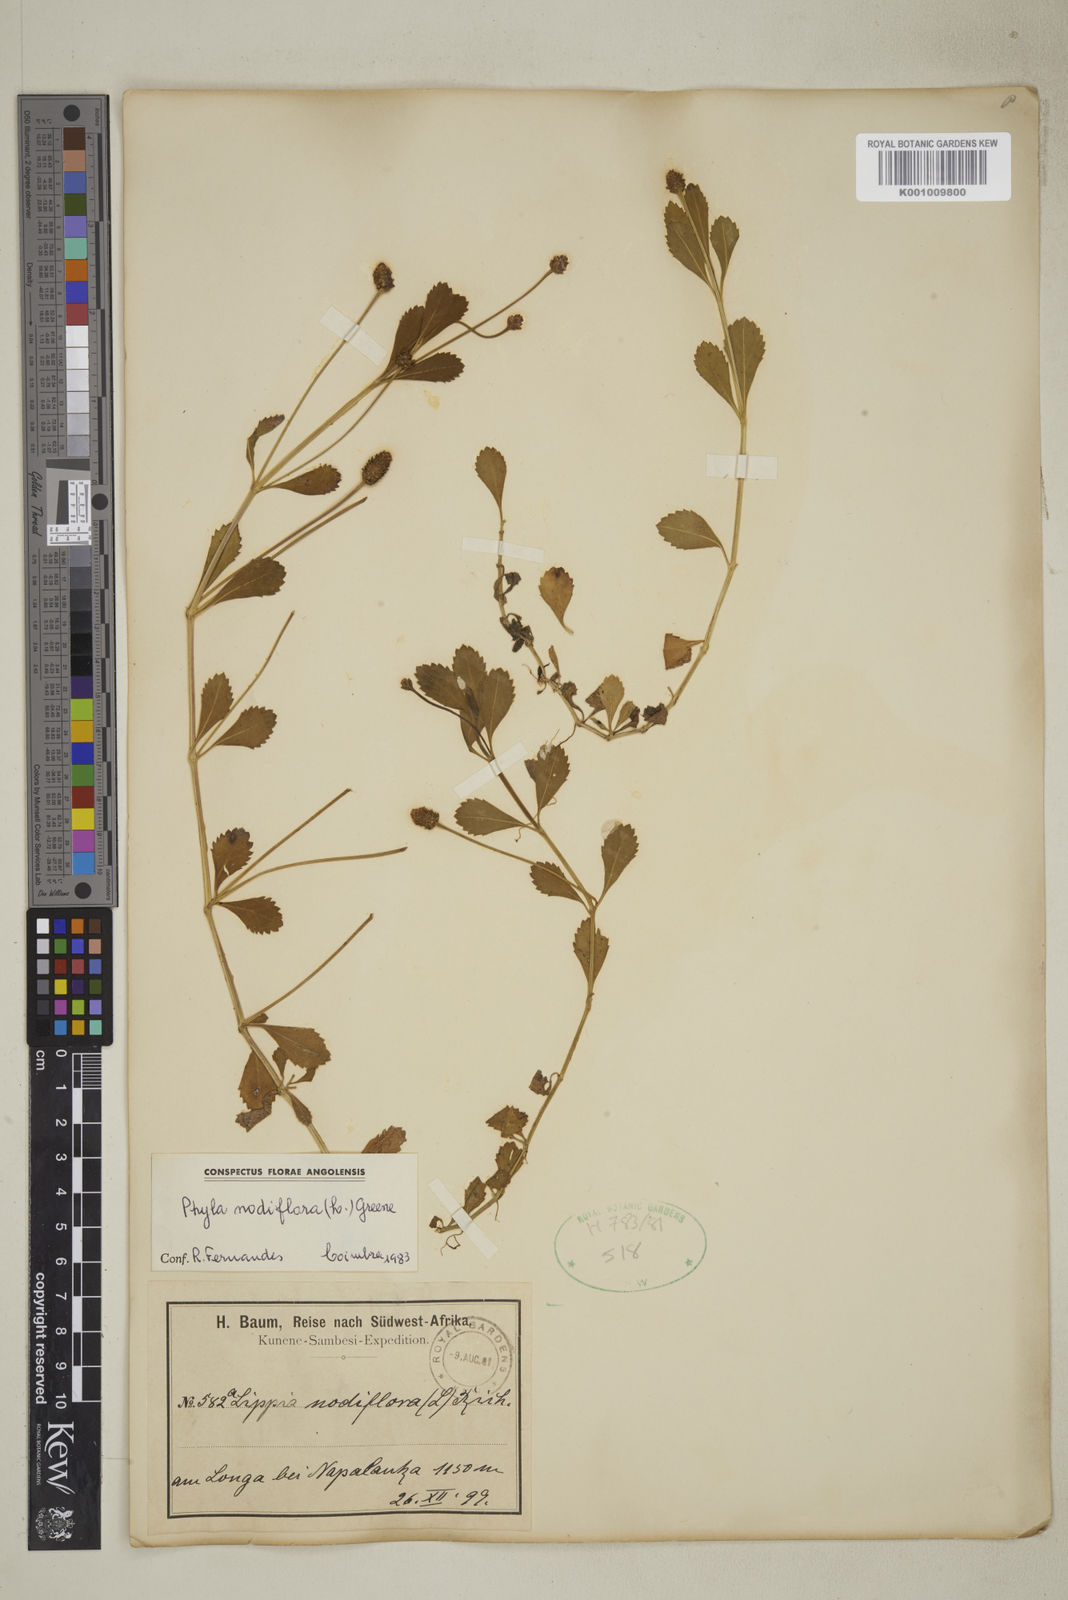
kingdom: Plantae
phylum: Tracheophyta
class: Magnoliopsida
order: Lamiales
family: Verbenaceae
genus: Phyla
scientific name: Phyla nodiflora
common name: Frogfruit
